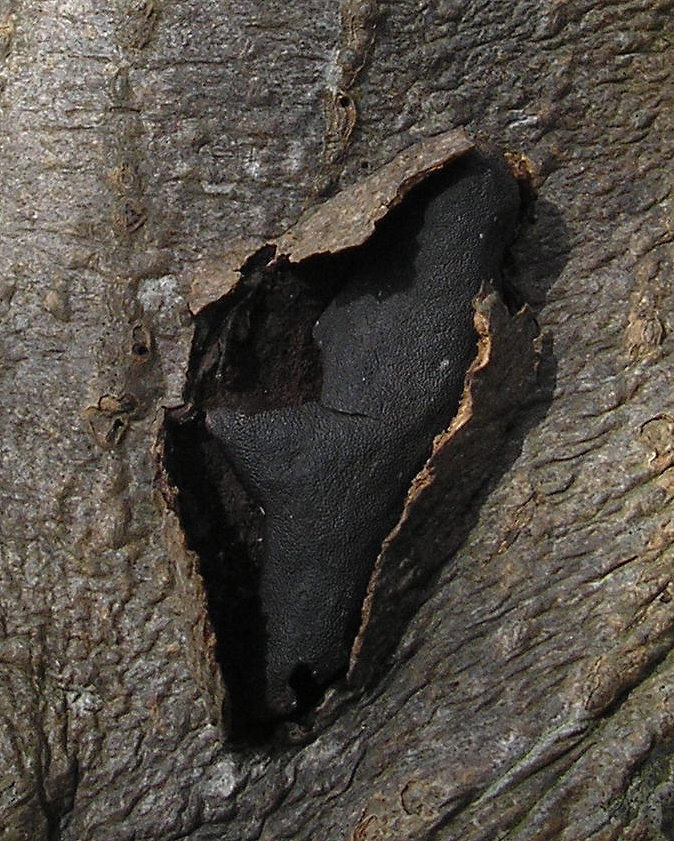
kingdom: Fungi
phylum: Ascomycota
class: Sordariomycetes
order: Boliniales
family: Boliniaceae
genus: Camarops
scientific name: Camarops polysperma
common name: elle-kulsnegl
